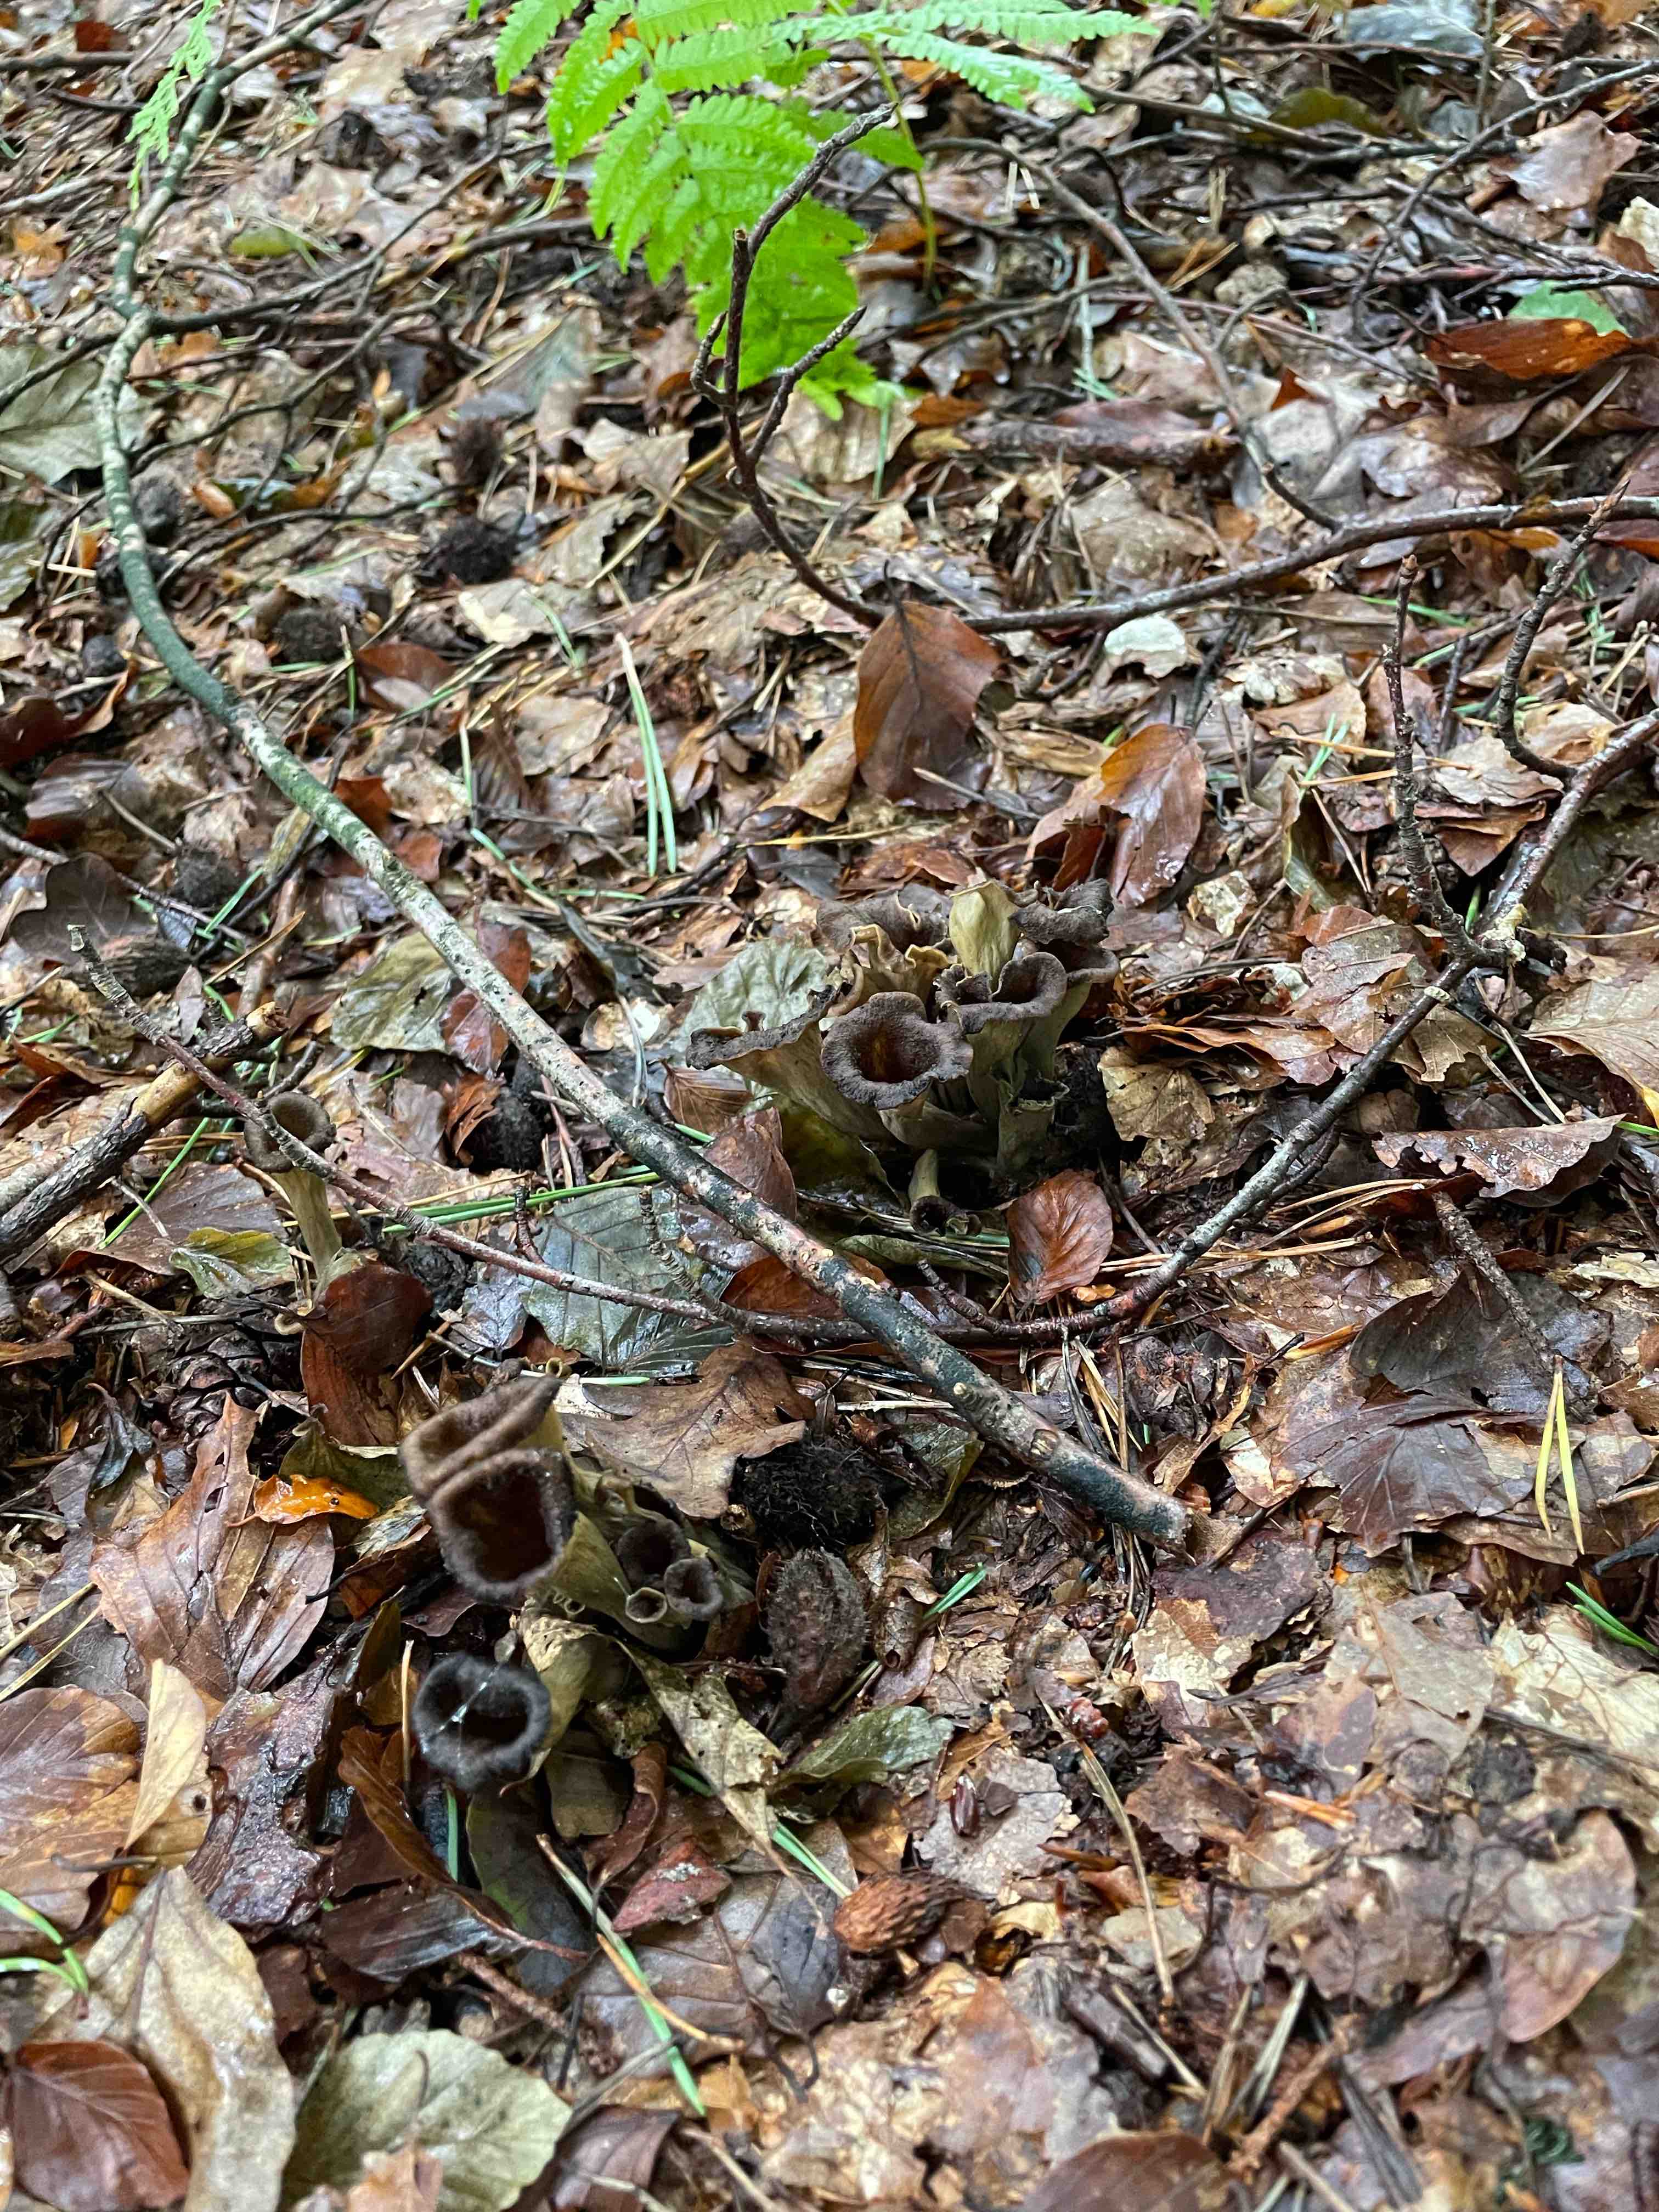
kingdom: Fungi
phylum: Basidiomycota
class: Agaricomycetes
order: Cantharellales
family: Hydnaceae
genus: Craterellus
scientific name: Craterellus cornucopioides
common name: trompetsvamp
